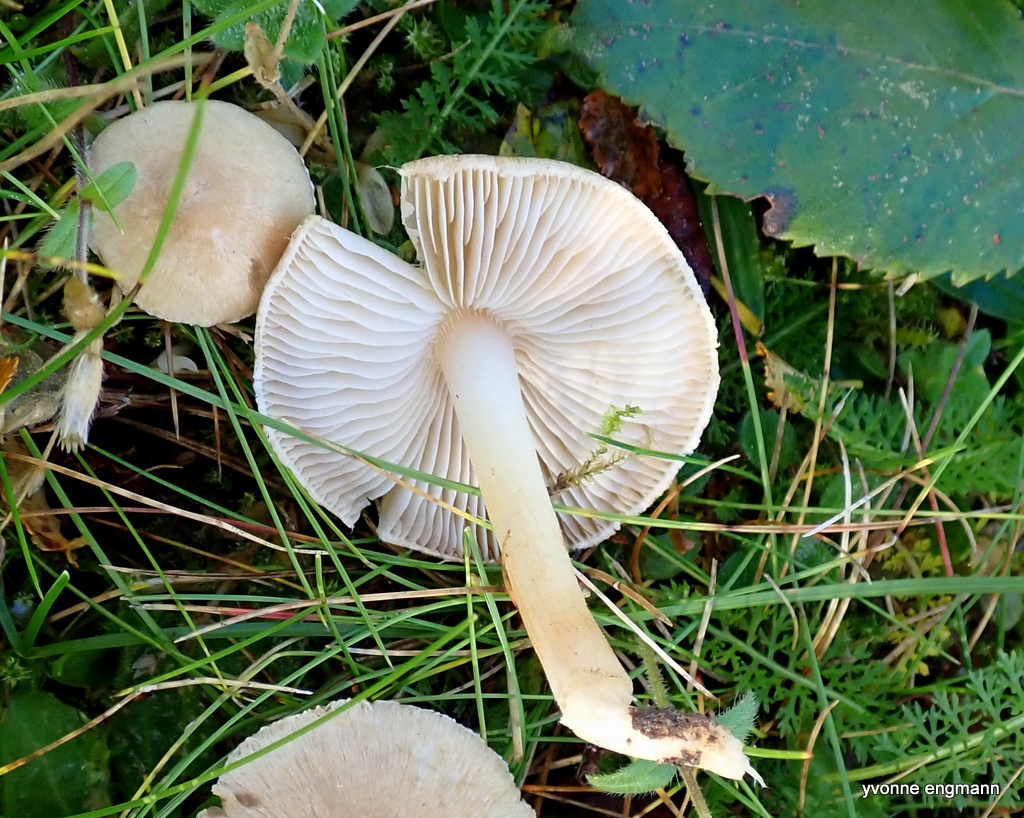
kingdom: Fungi
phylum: Basidiomycota
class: Agaricomycetes
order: Agaricales
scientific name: Agaricales
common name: champignonordenen
